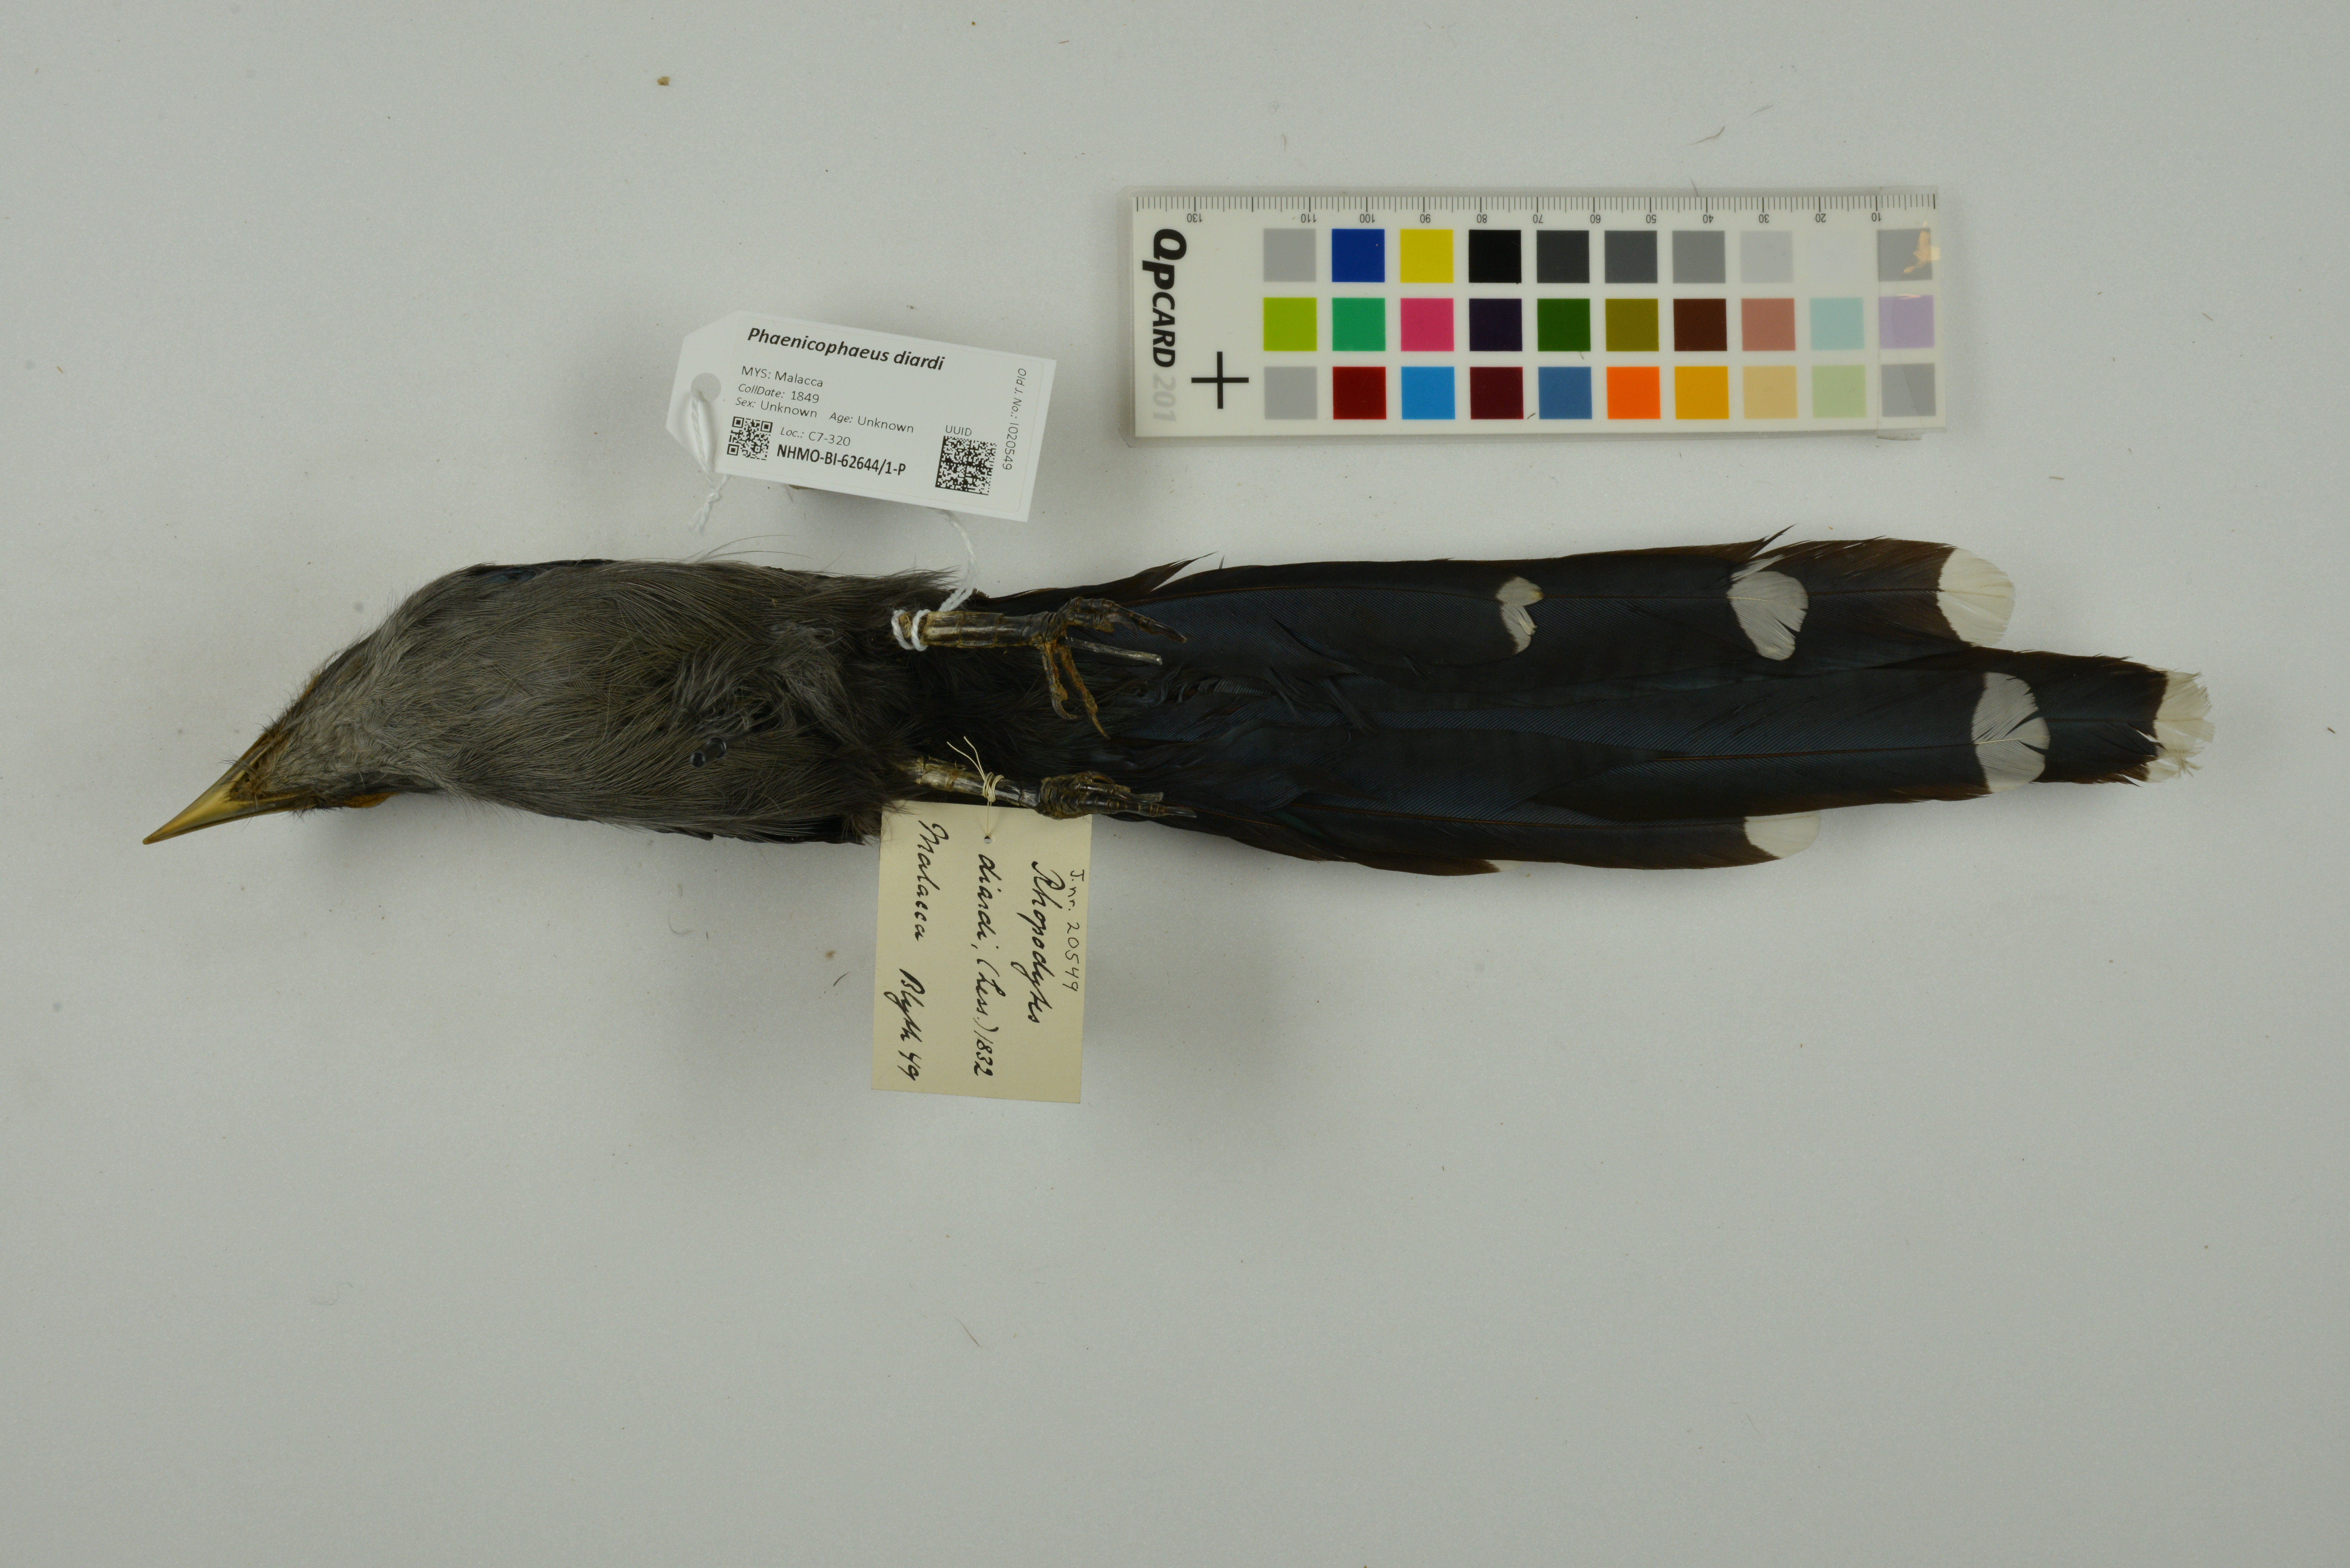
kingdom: Animalia
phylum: Chordata
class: Aves
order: Cuculiformes
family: Cuculidae
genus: Rhopodytes
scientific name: Rhopodytes diardi
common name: Lesser green-billed malcoha
